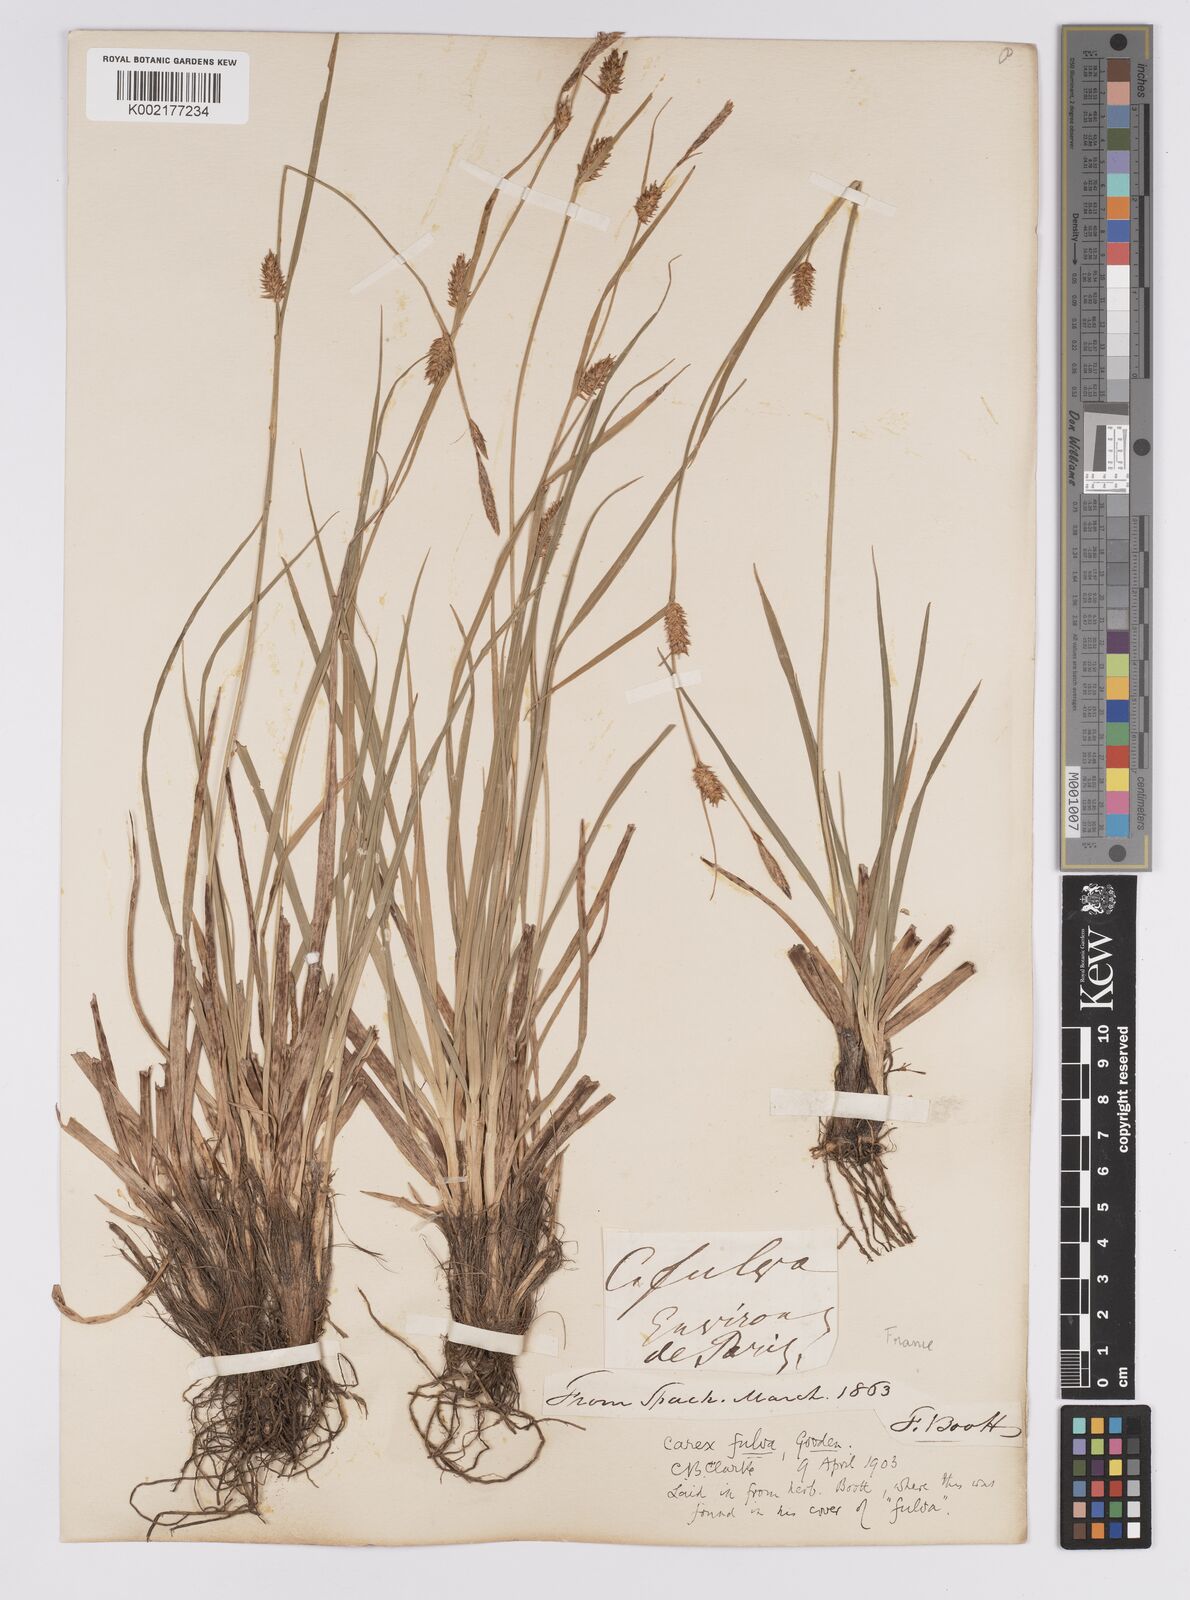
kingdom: Plantae
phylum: Tracheophyta
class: Liliopsida
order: Poales
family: Cyperaceae
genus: Carex
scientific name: Carex hostiana
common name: Tawny sedge
